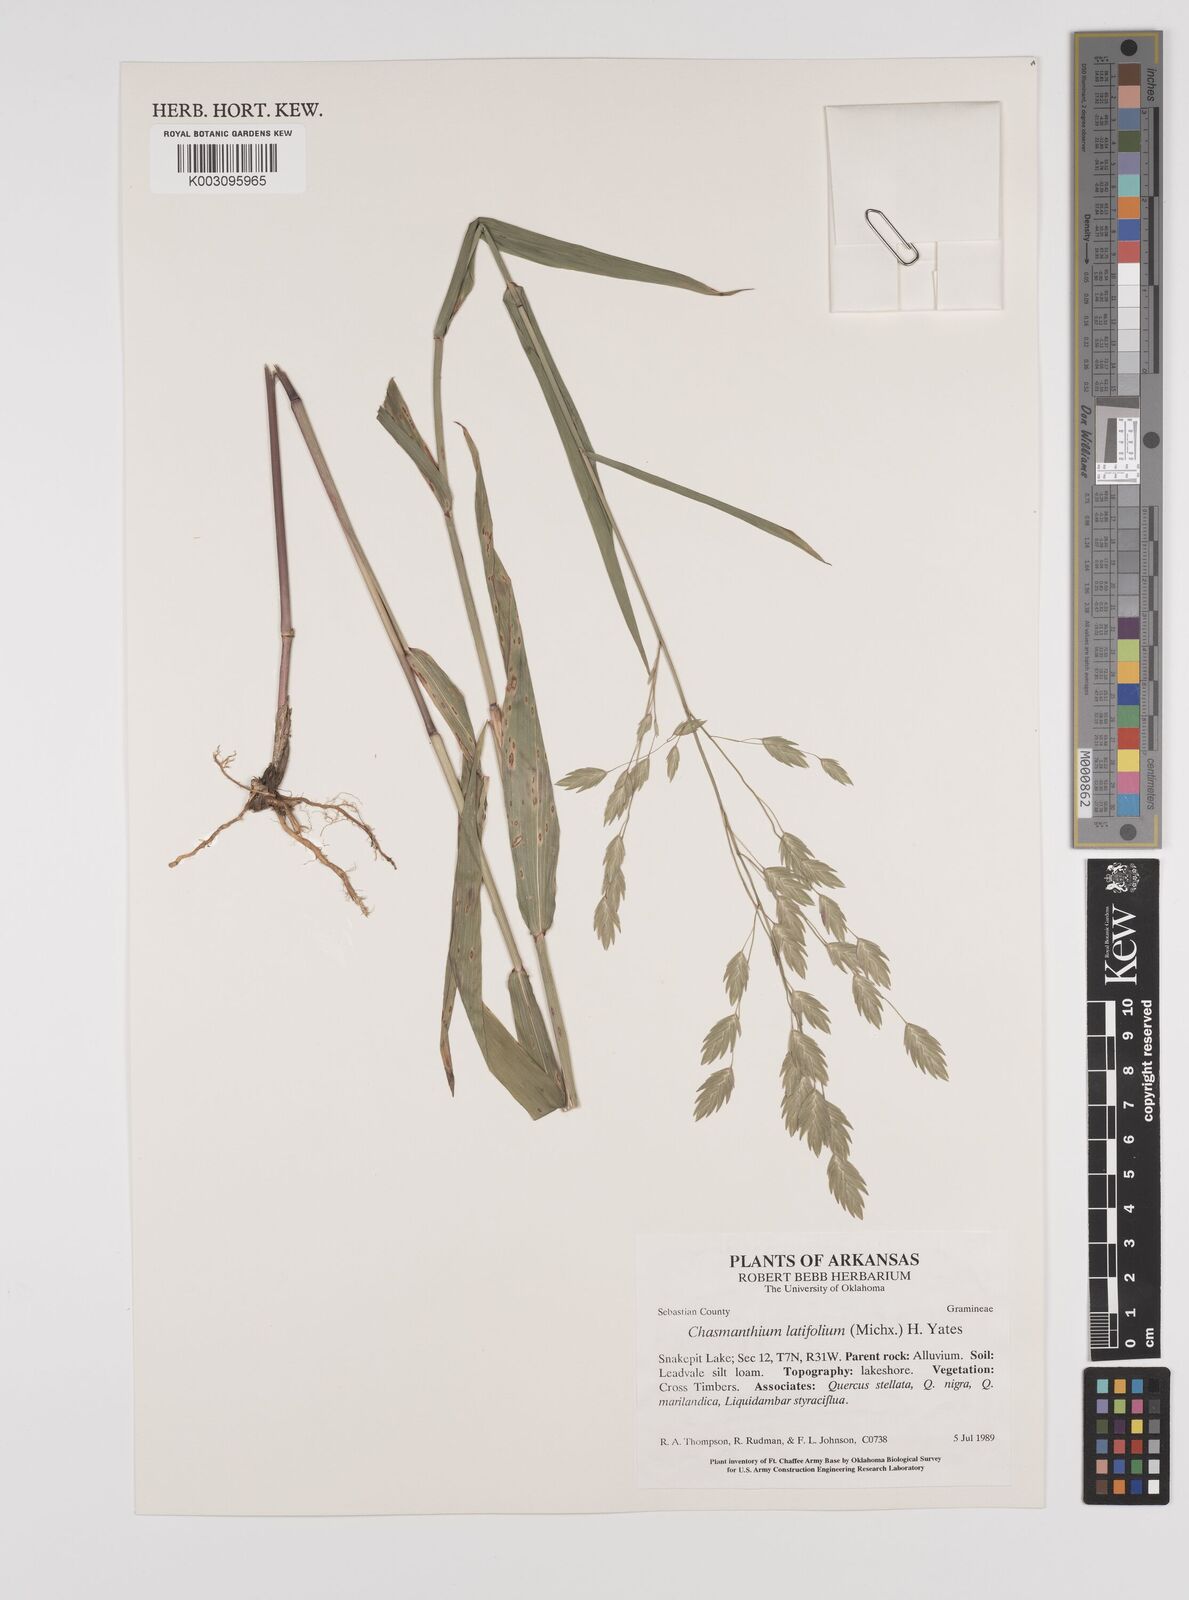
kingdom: Plantae
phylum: Tracheophyta
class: Liliopsida
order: Poales
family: Poaceae
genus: Chasmanthium
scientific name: Chasmanthium latifolium
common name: Broad-leaved chasmanthium
